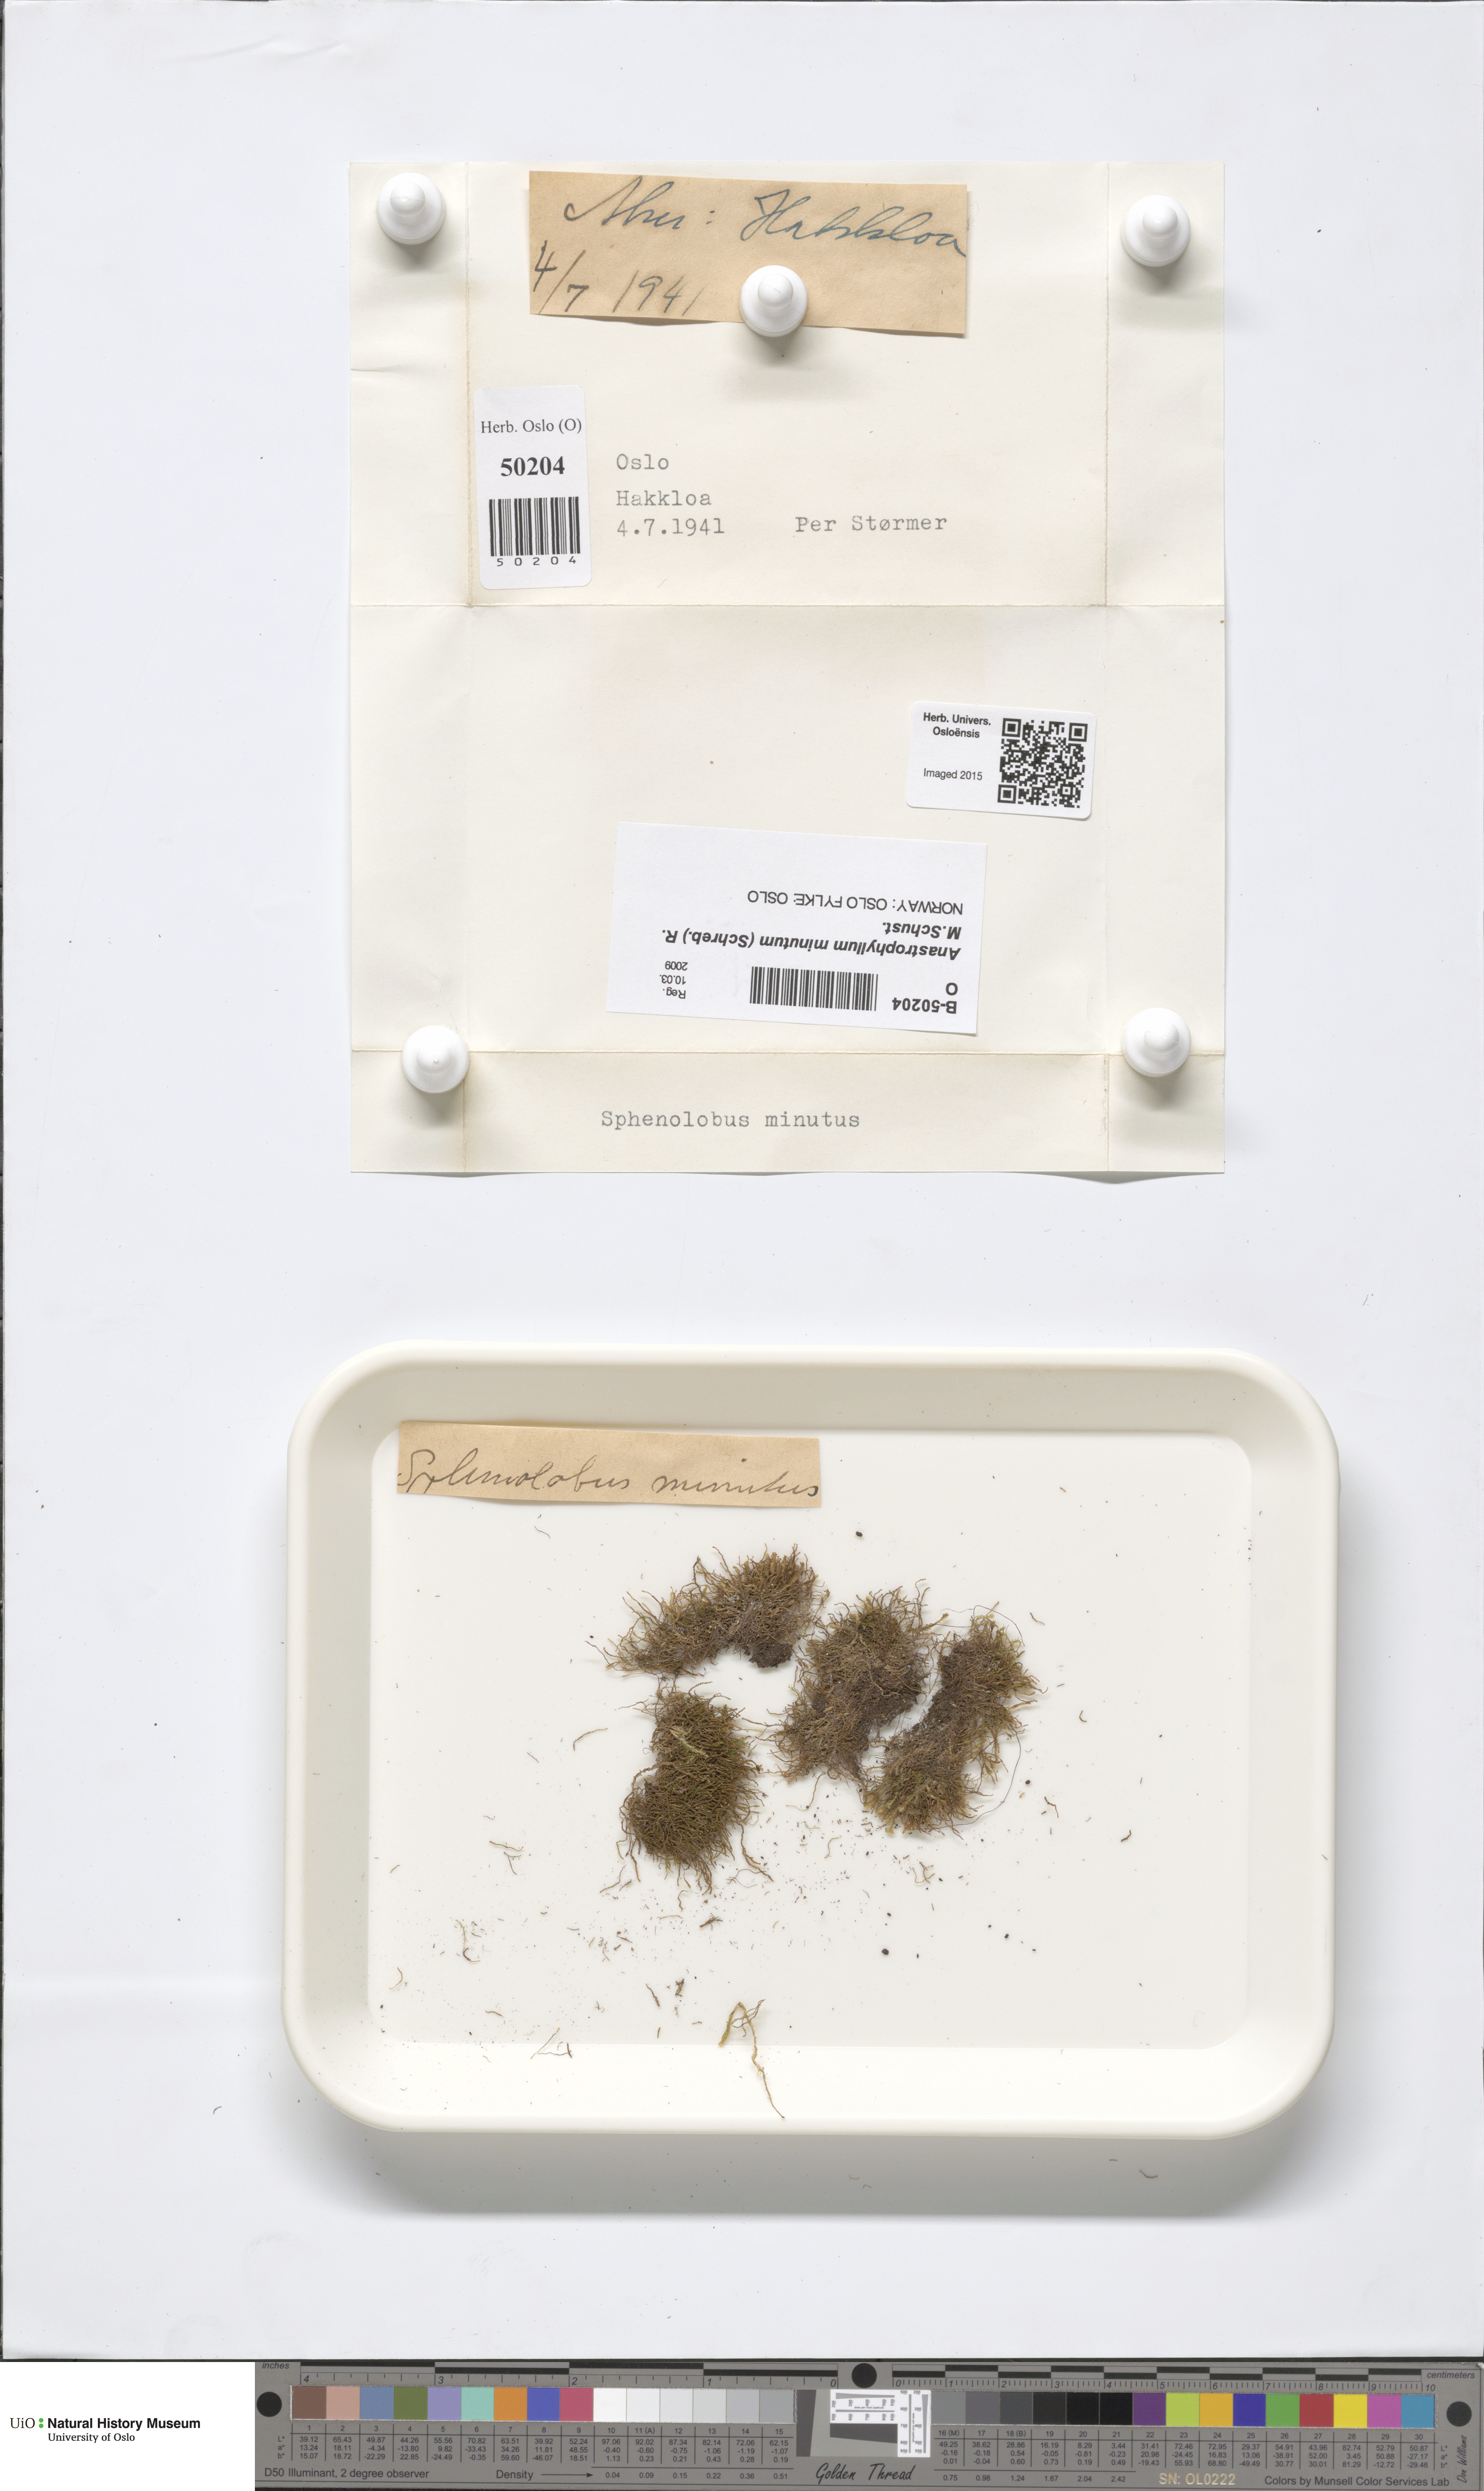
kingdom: Plantae
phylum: Marchantiophyta
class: Jungermanniopsida
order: Jungermanniales
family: Anastrophyllaceae
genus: Sphenolobus
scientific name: Sphenolobus minutus
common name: Comb notchwort
